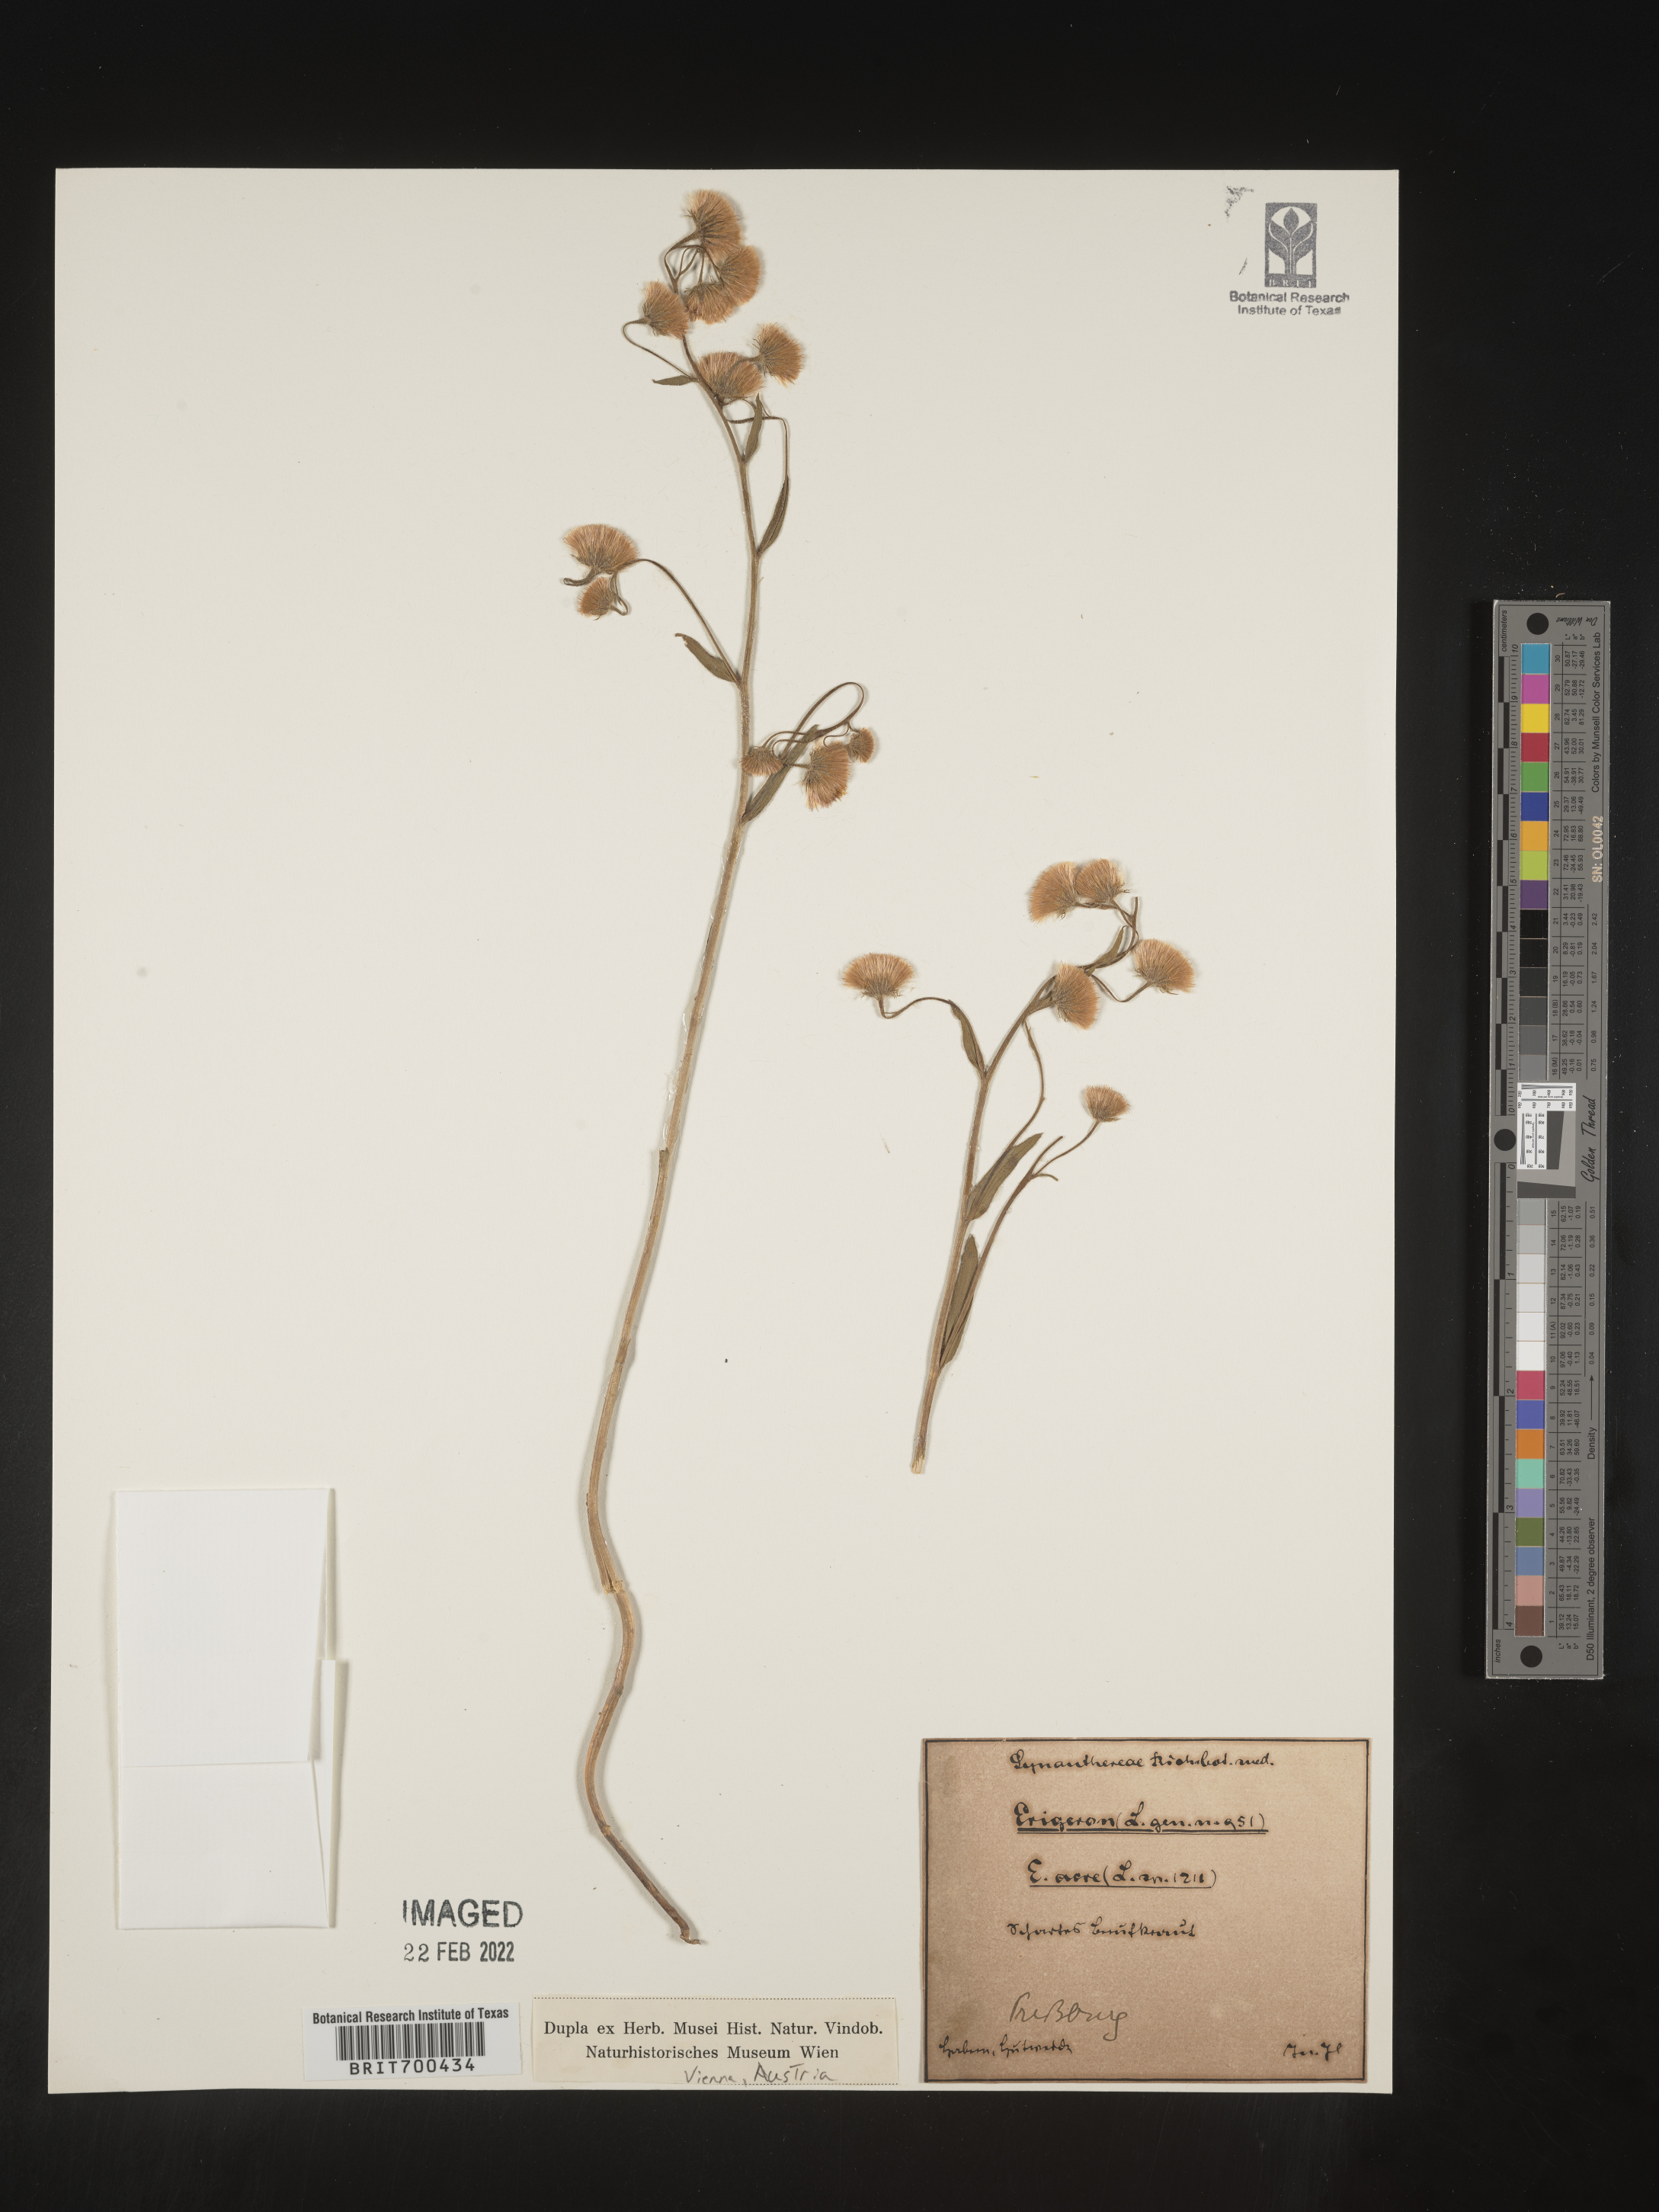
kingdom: Plantae
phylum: Tracheophyta
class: Magnoliopsida
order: Asterales
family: Asteraceae
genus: Erigeron
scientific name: Erigeron
